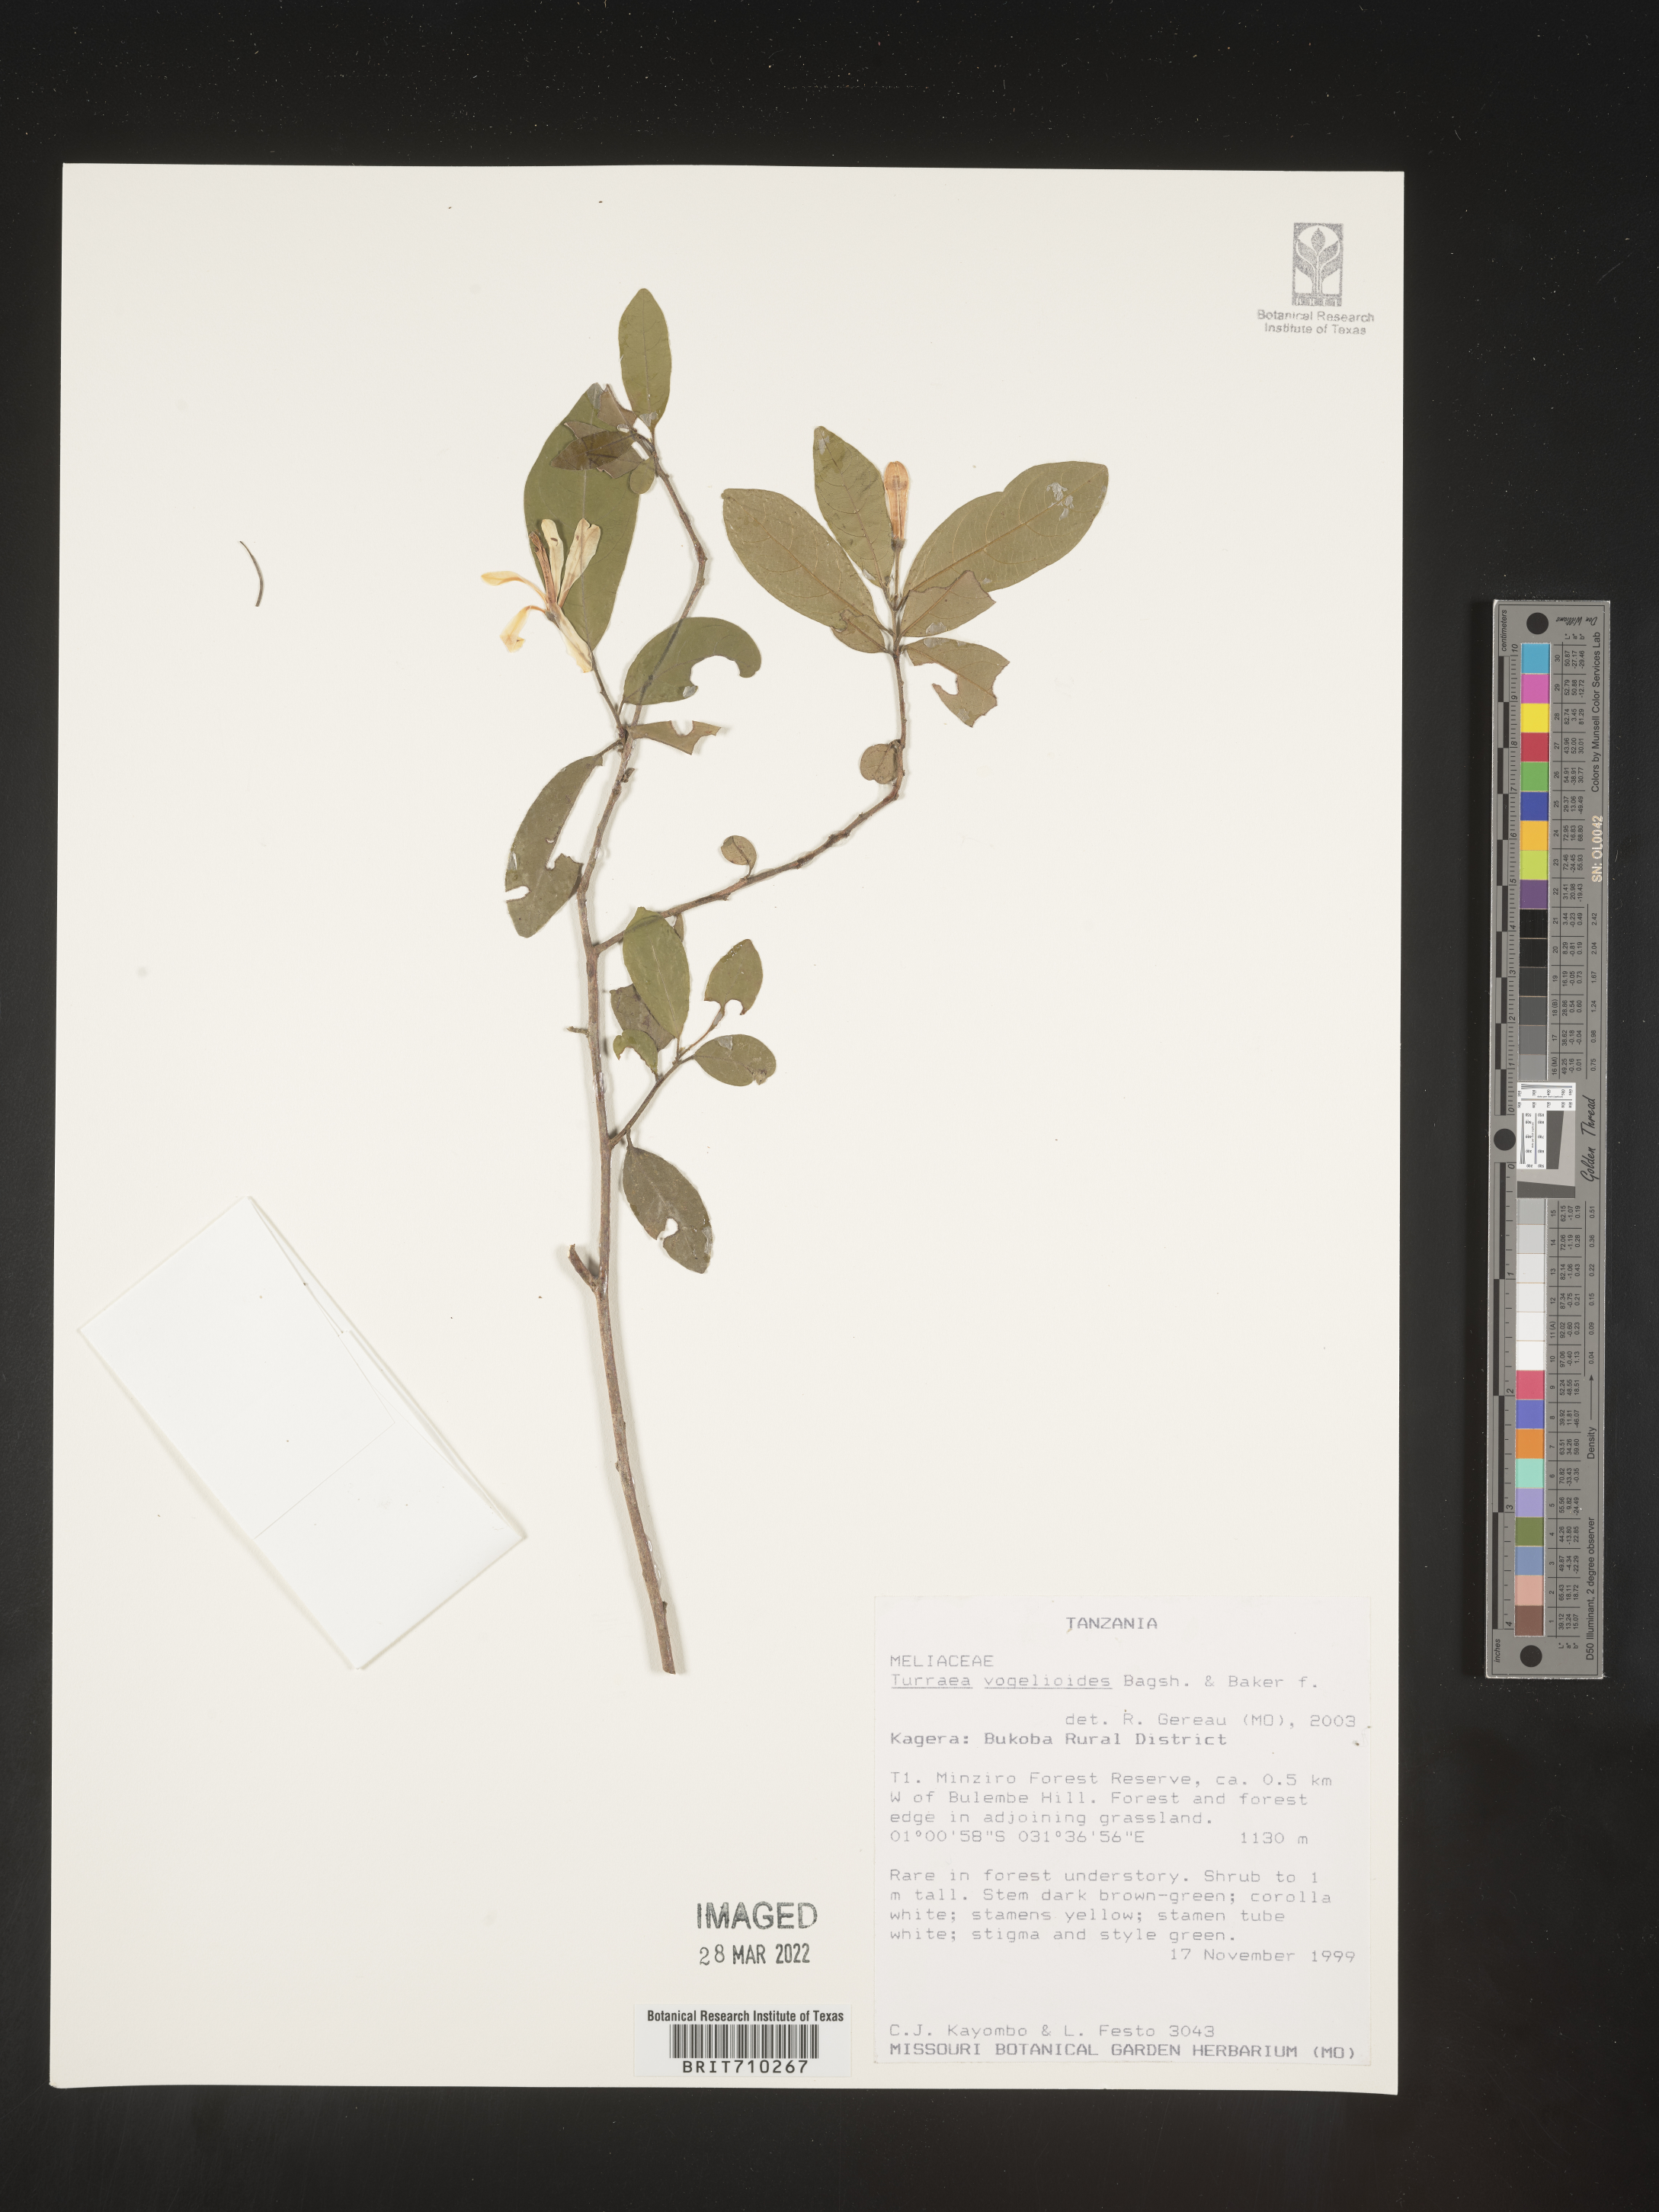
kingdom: Plantae
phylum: Tracheophyta
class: Magnoliopsida
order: Sapindales
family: Meliaceae
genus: Turraea
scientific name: Turraea
